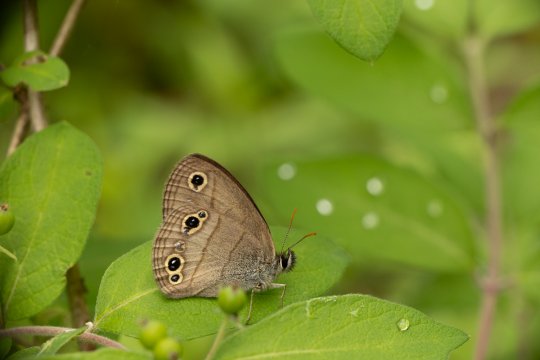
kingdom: Animalia
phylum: Arthropoda
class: Insecta
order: Lepidoptera
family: Nymphalidae
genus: Euptychia
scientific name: Euptychia cymela
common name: Little Wood Satyr
